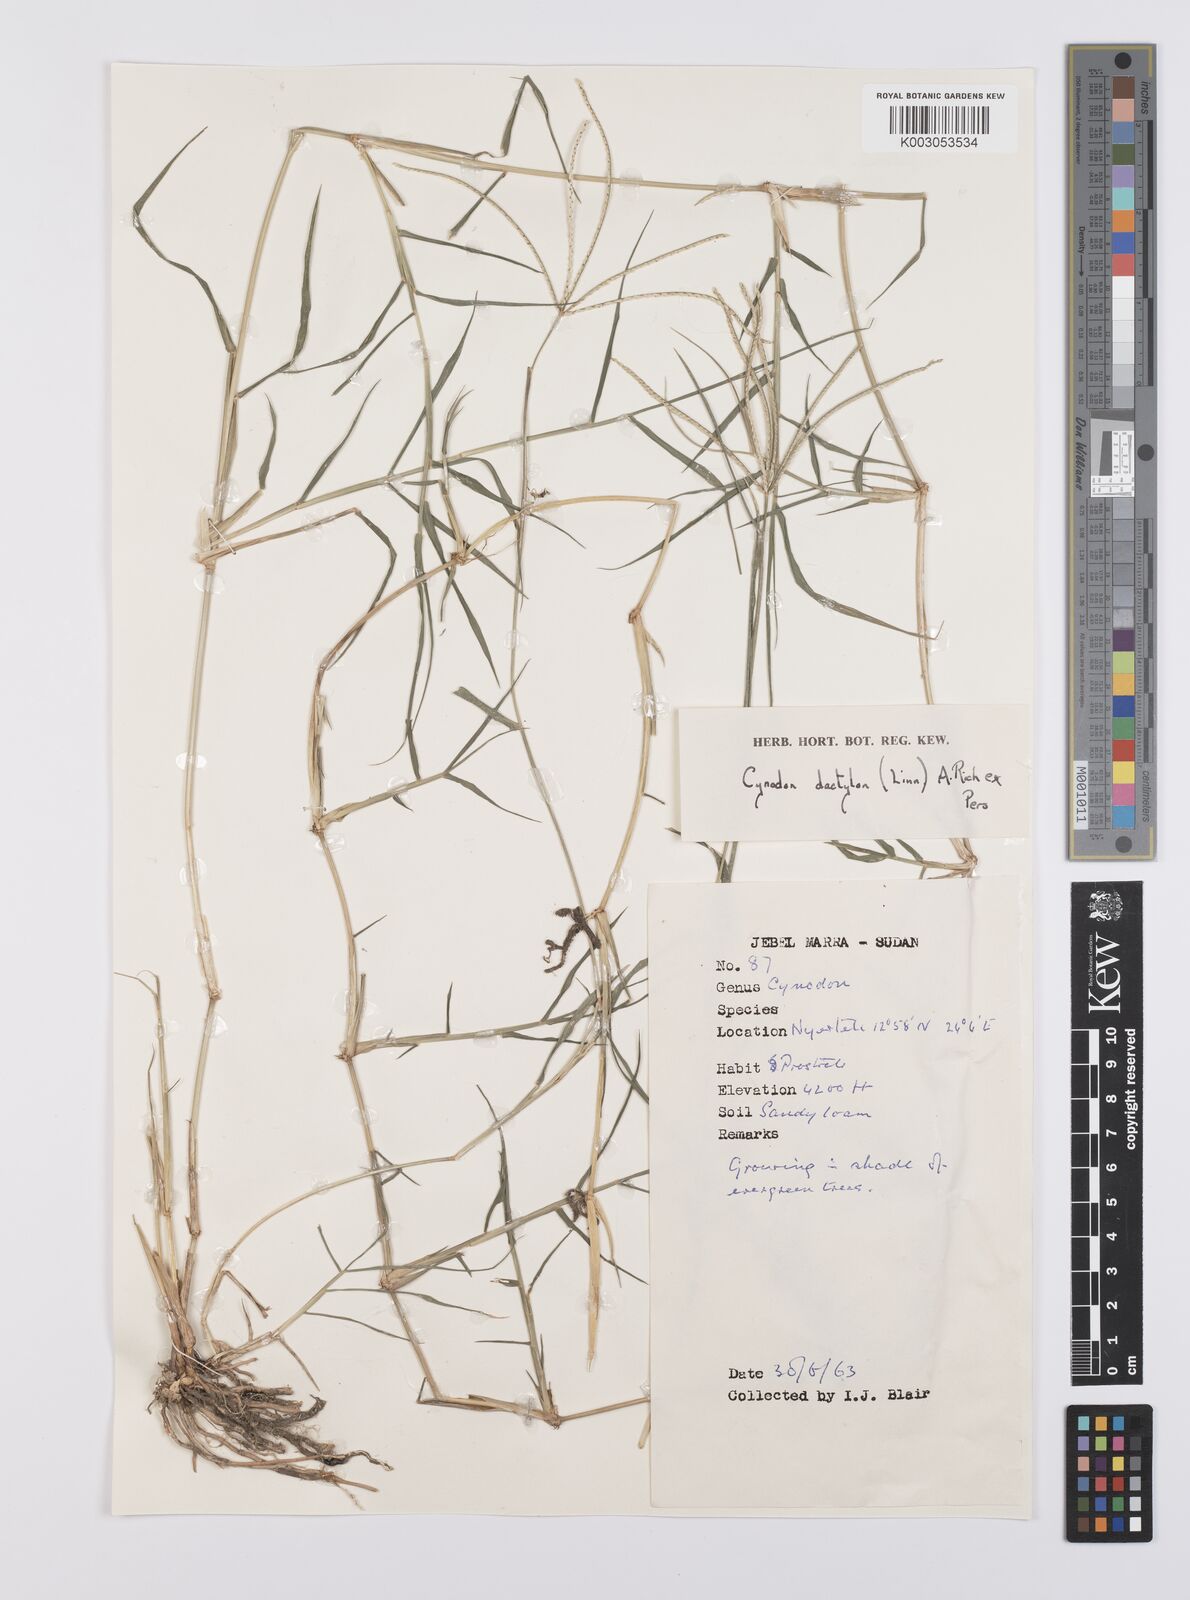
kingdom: Plantae
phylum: Tracheophyta
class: Liliopsida
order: Poales
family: Poaceae
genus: Cynodon
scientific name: Cynodon dactylon
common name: Bermuda grass
